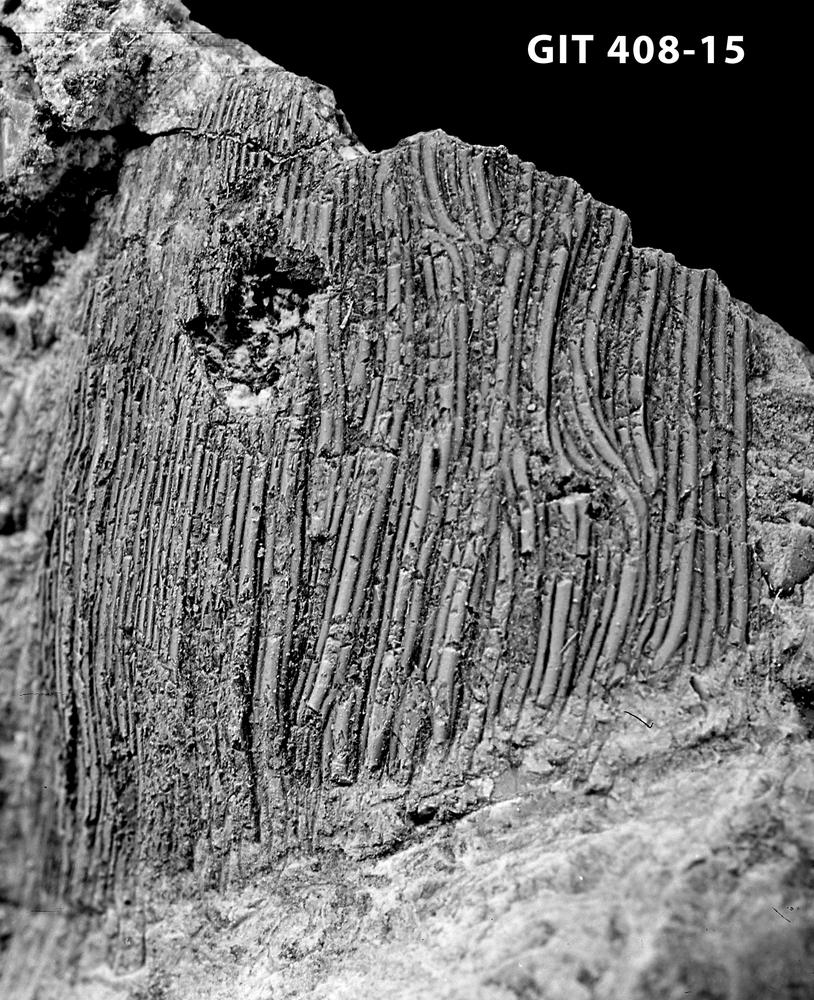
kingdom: Animalia
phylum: Chordata
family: Cyathaspididae
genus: Cyathaspis
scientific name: Cyathaspis
